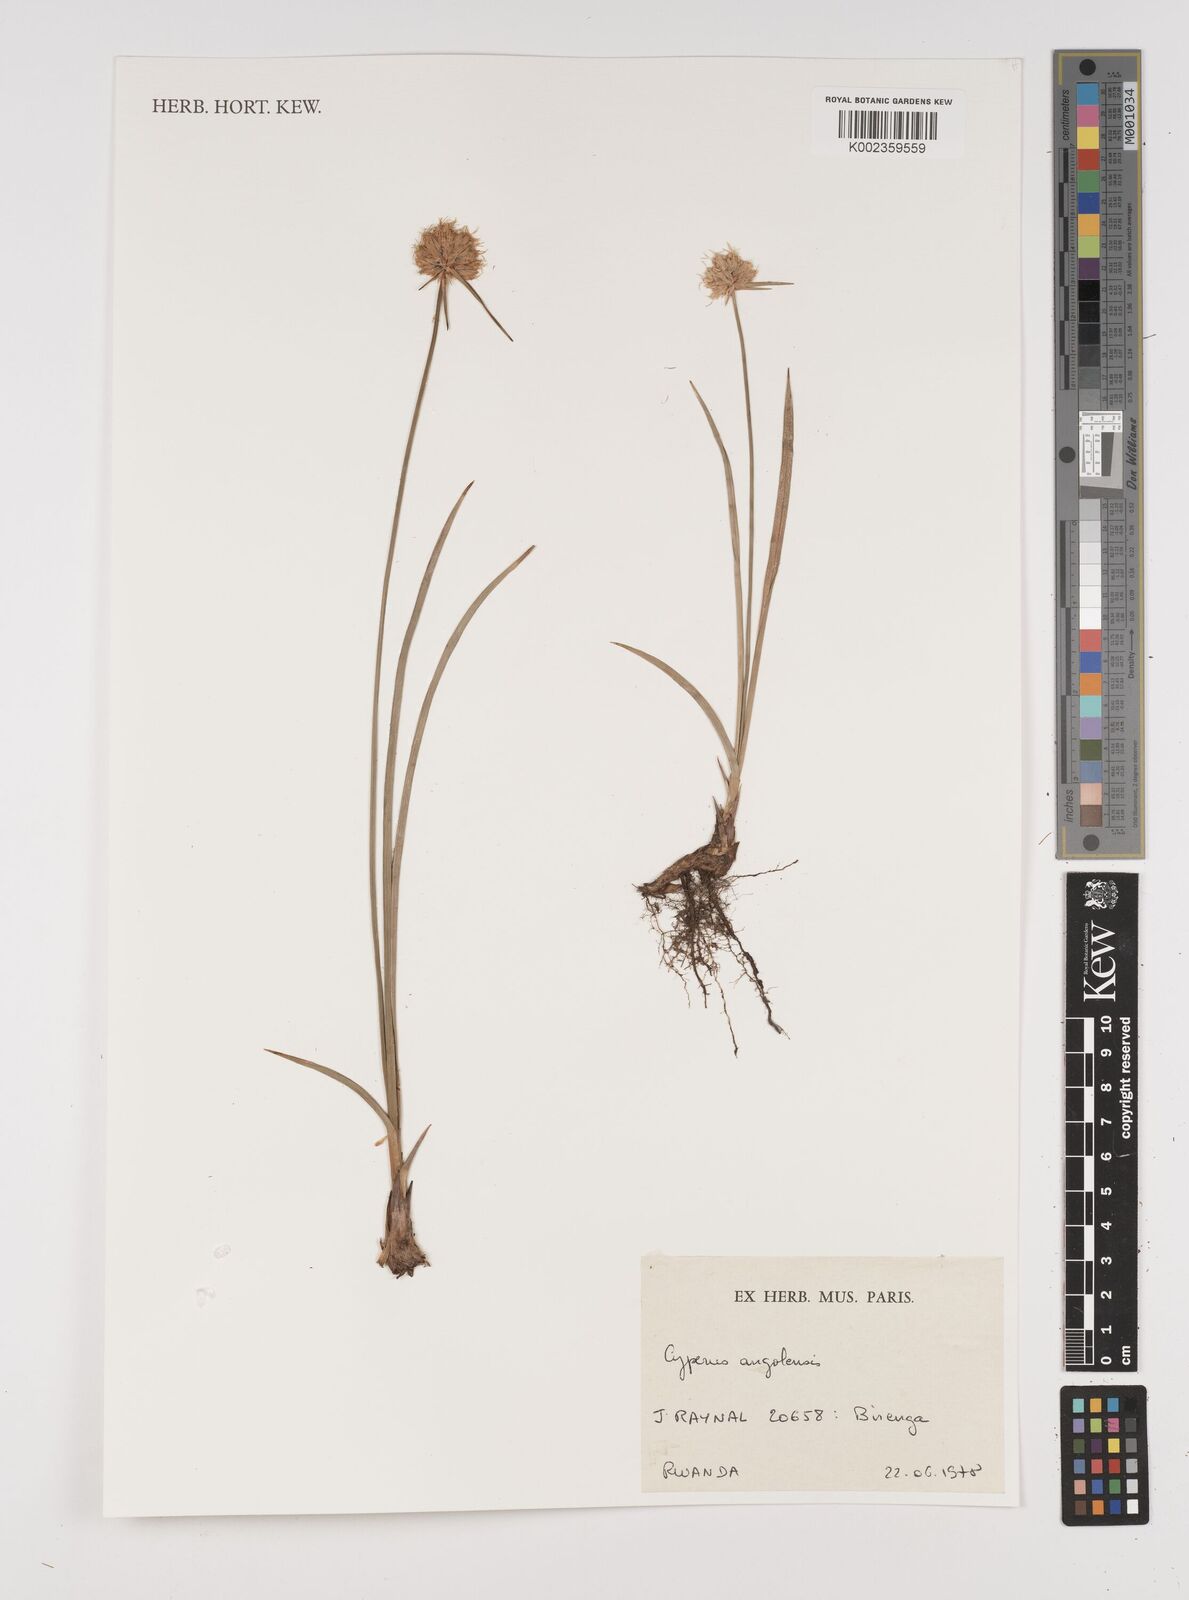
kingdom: Plantae
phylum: Tracheophyta
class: Liliopsida
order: Poales
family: Cyperaceae
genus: Cyperus
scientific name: Cyperus angolensis
